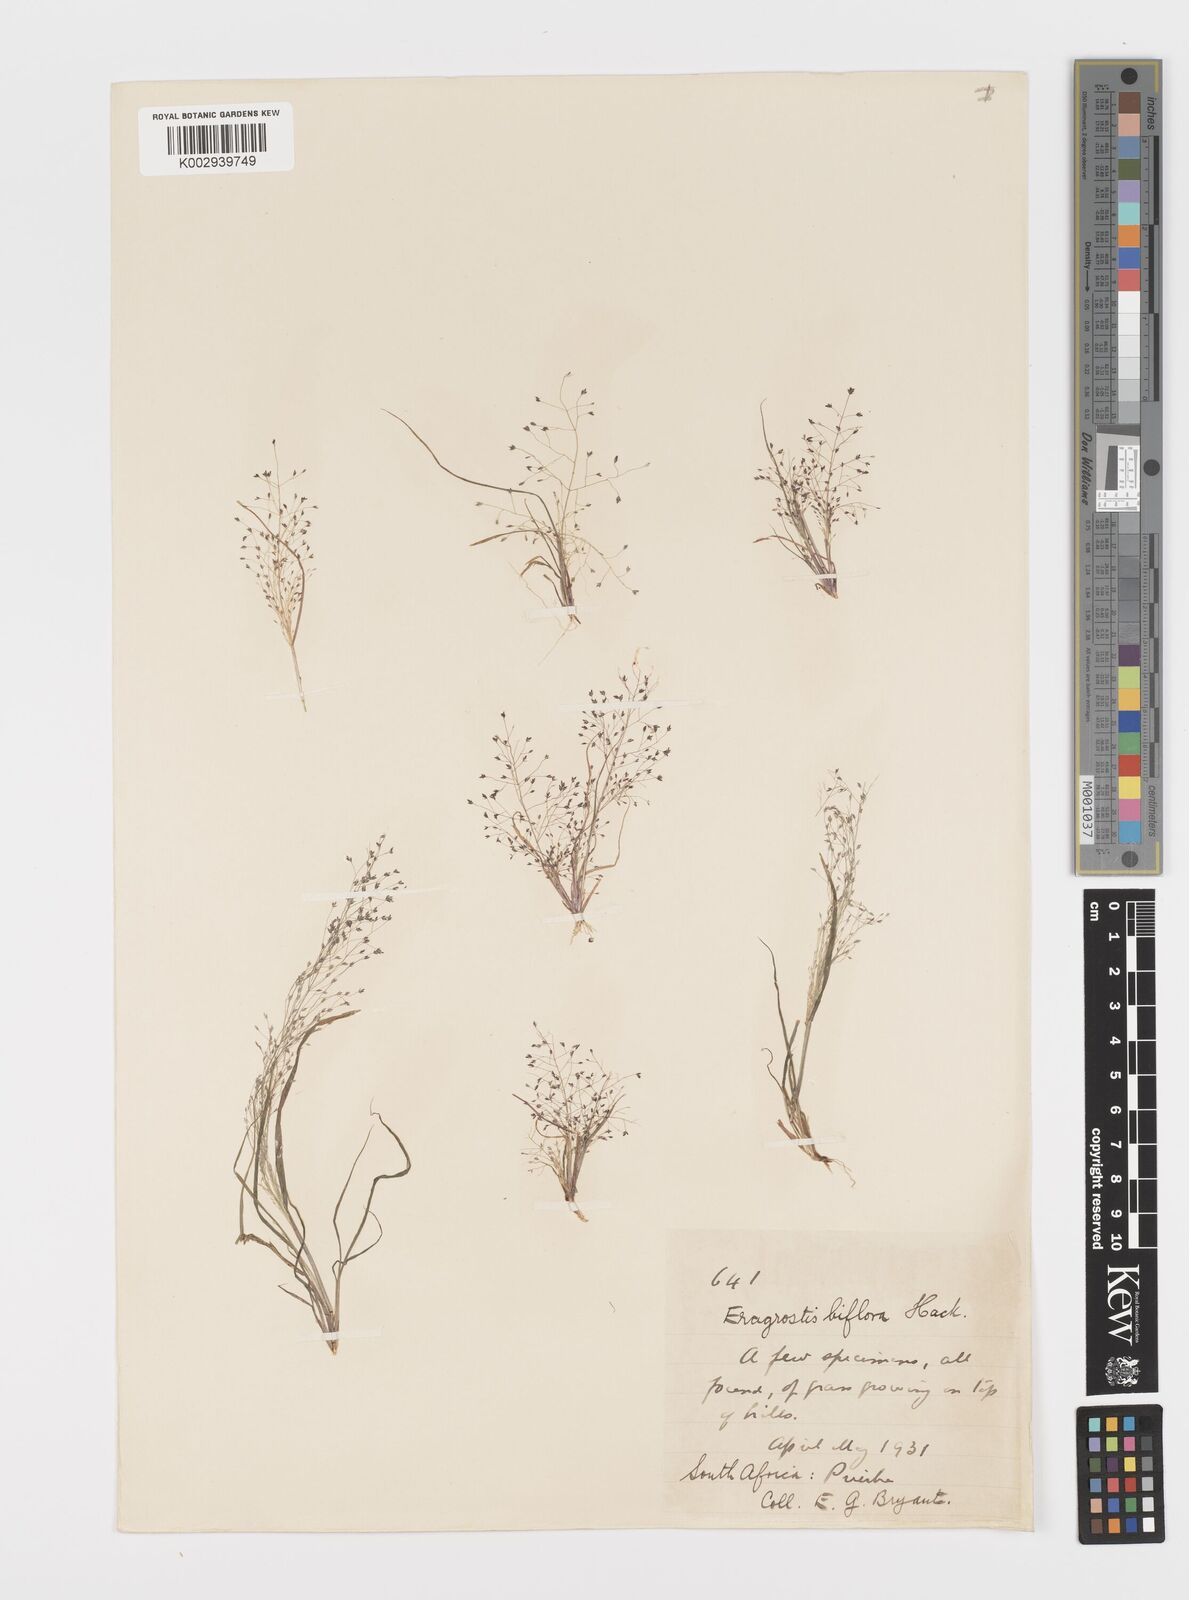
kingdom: Plantae
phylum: Tracheophyta
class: Liliopsida
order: Poales
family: Poaceae
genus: Eragrostis
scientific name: Eragrostis biflora
